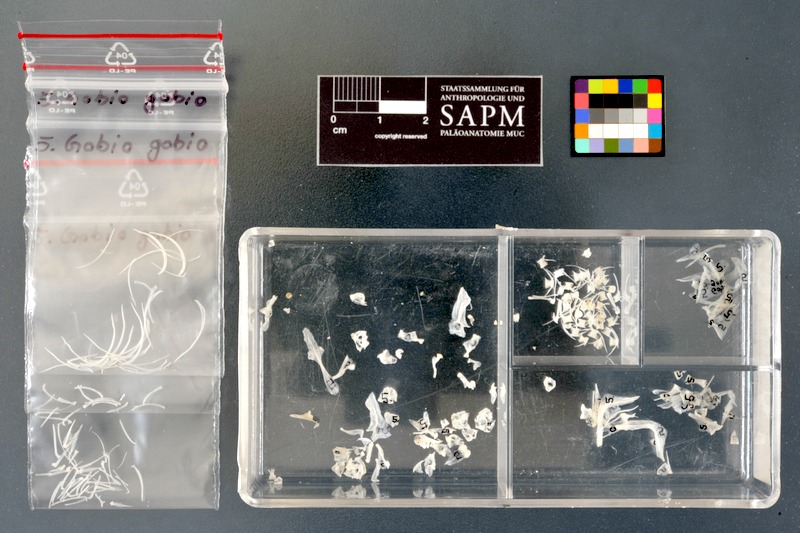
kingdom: Animalia
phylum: Chordata
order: Cypriniformes
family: Cyprinidae
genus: Gobio
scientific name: Gobio gobio
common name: Gudgeon
